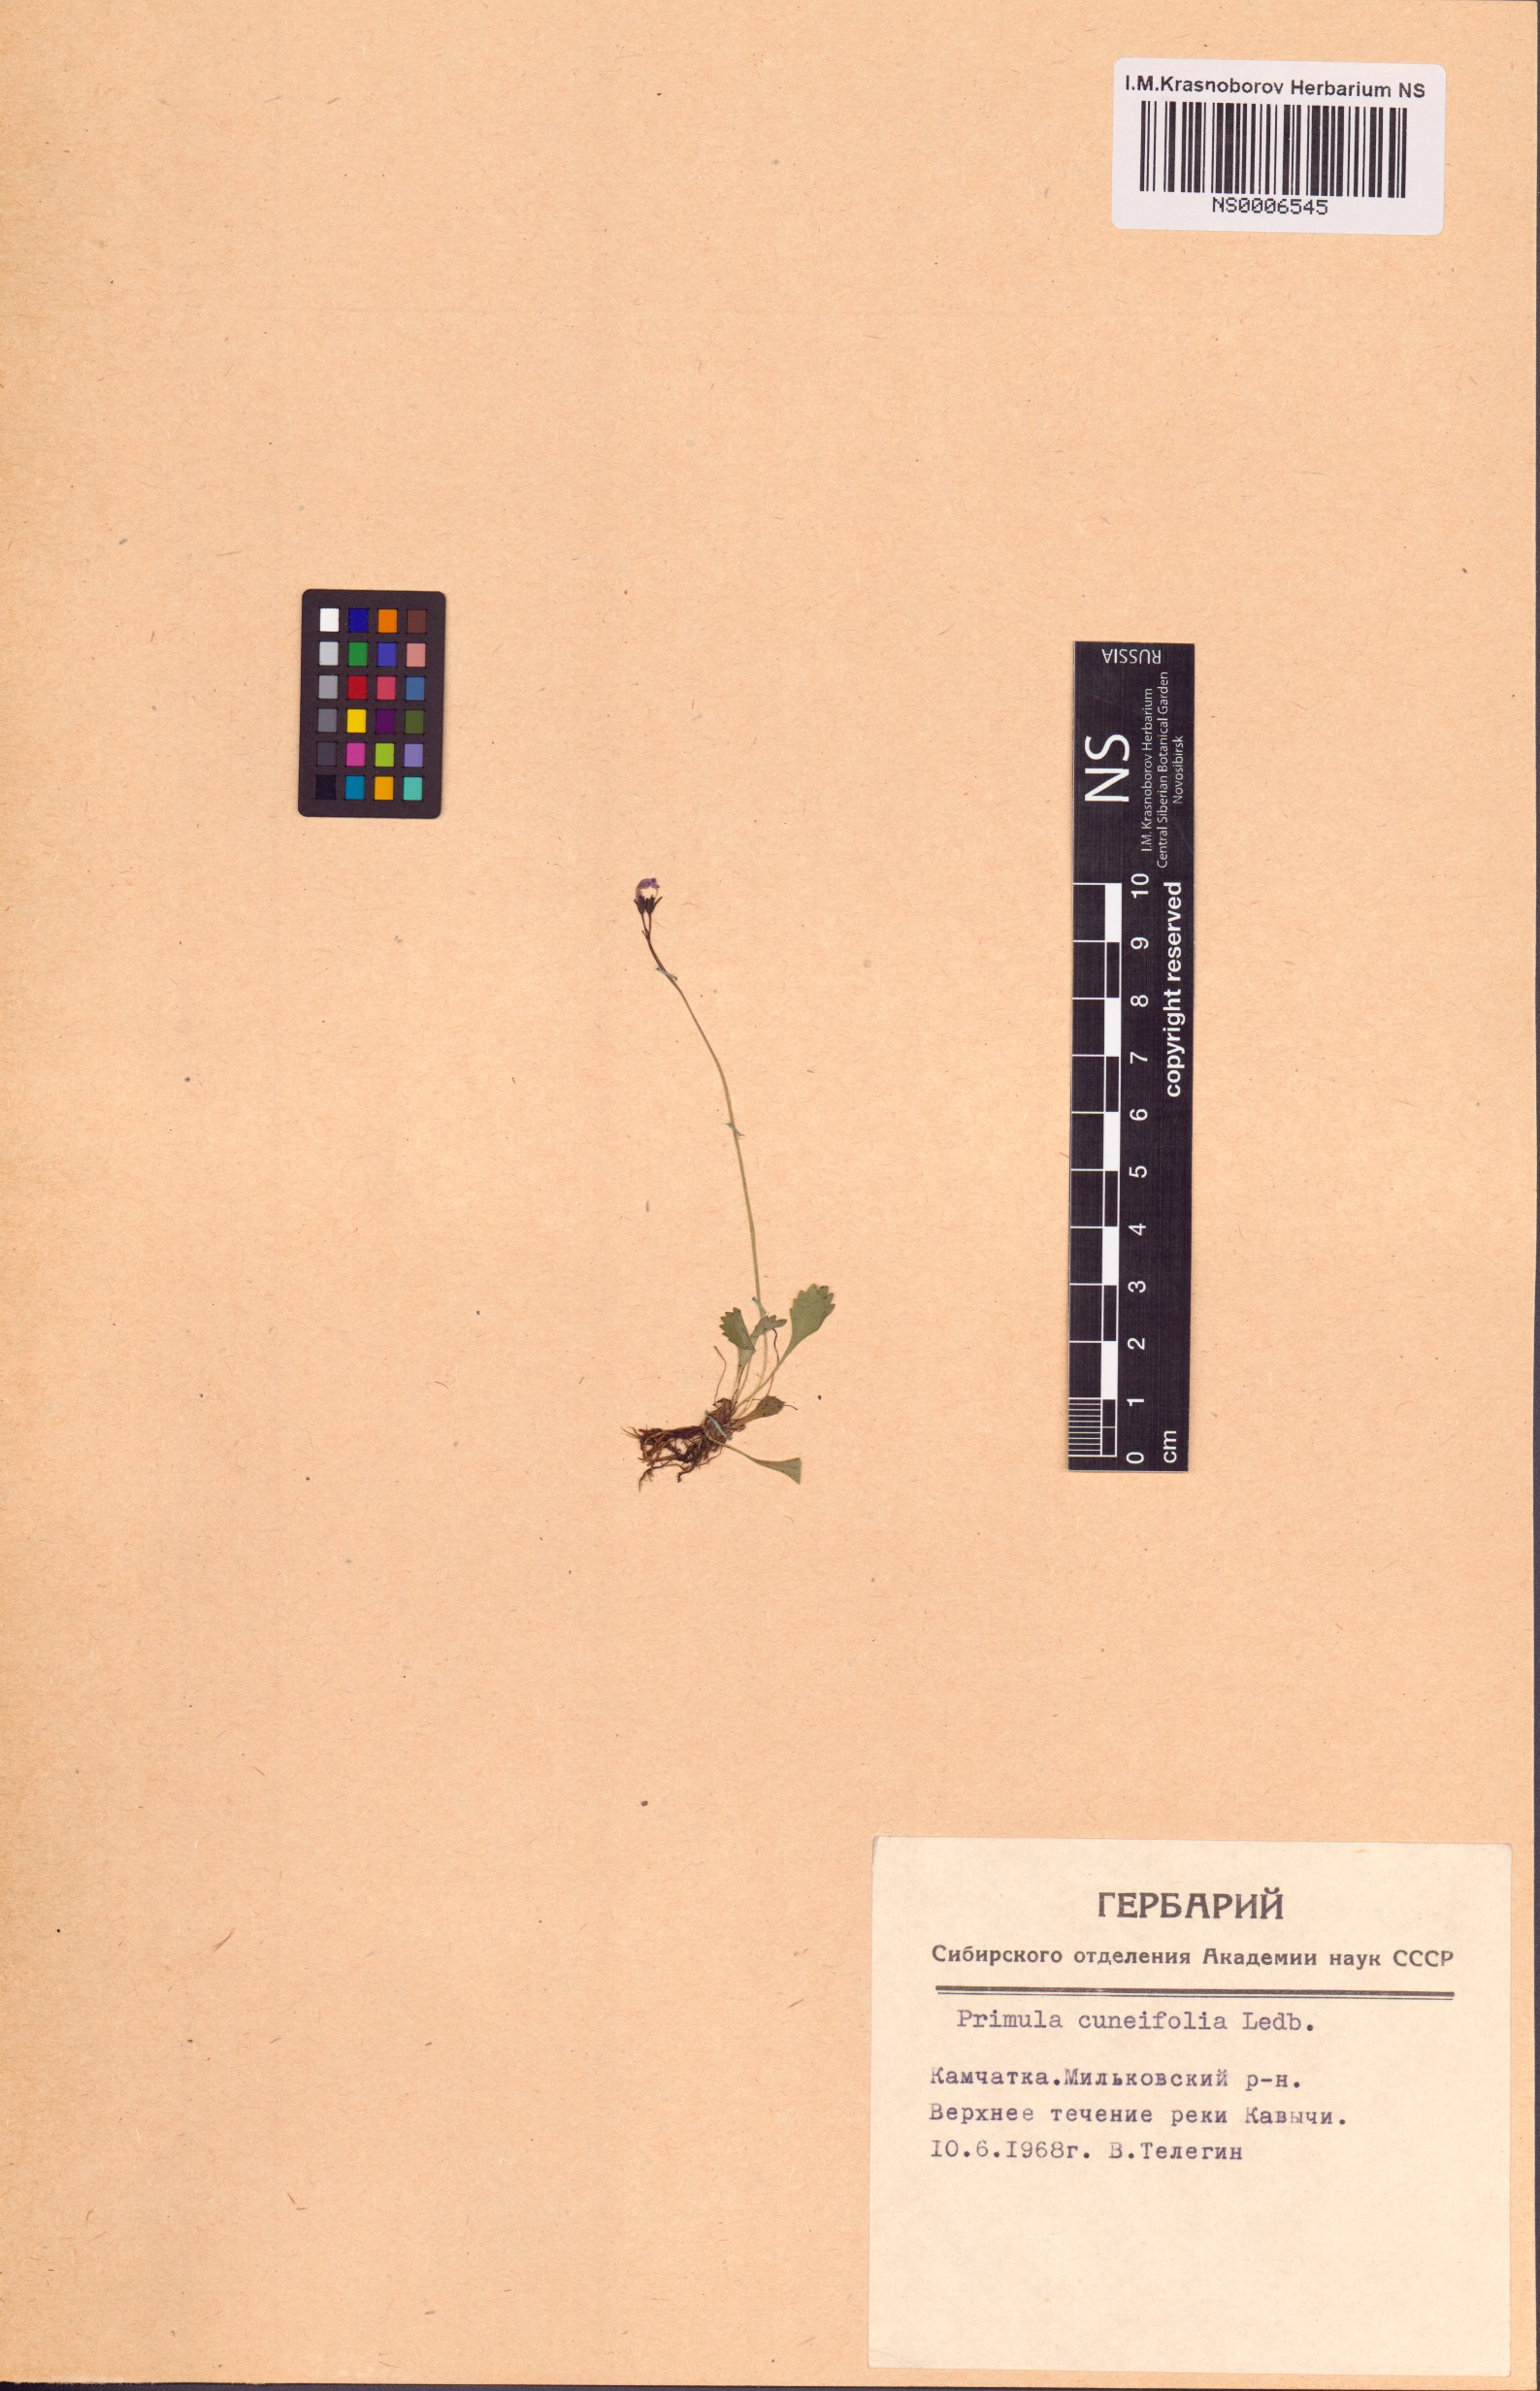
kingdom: Plantae
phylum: Tracheophyta
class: Magnoliopsida
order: Ericales
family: Primulaceae
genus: Primula
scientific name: Primula cuneifolia
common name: Wedge-leaved primrose
